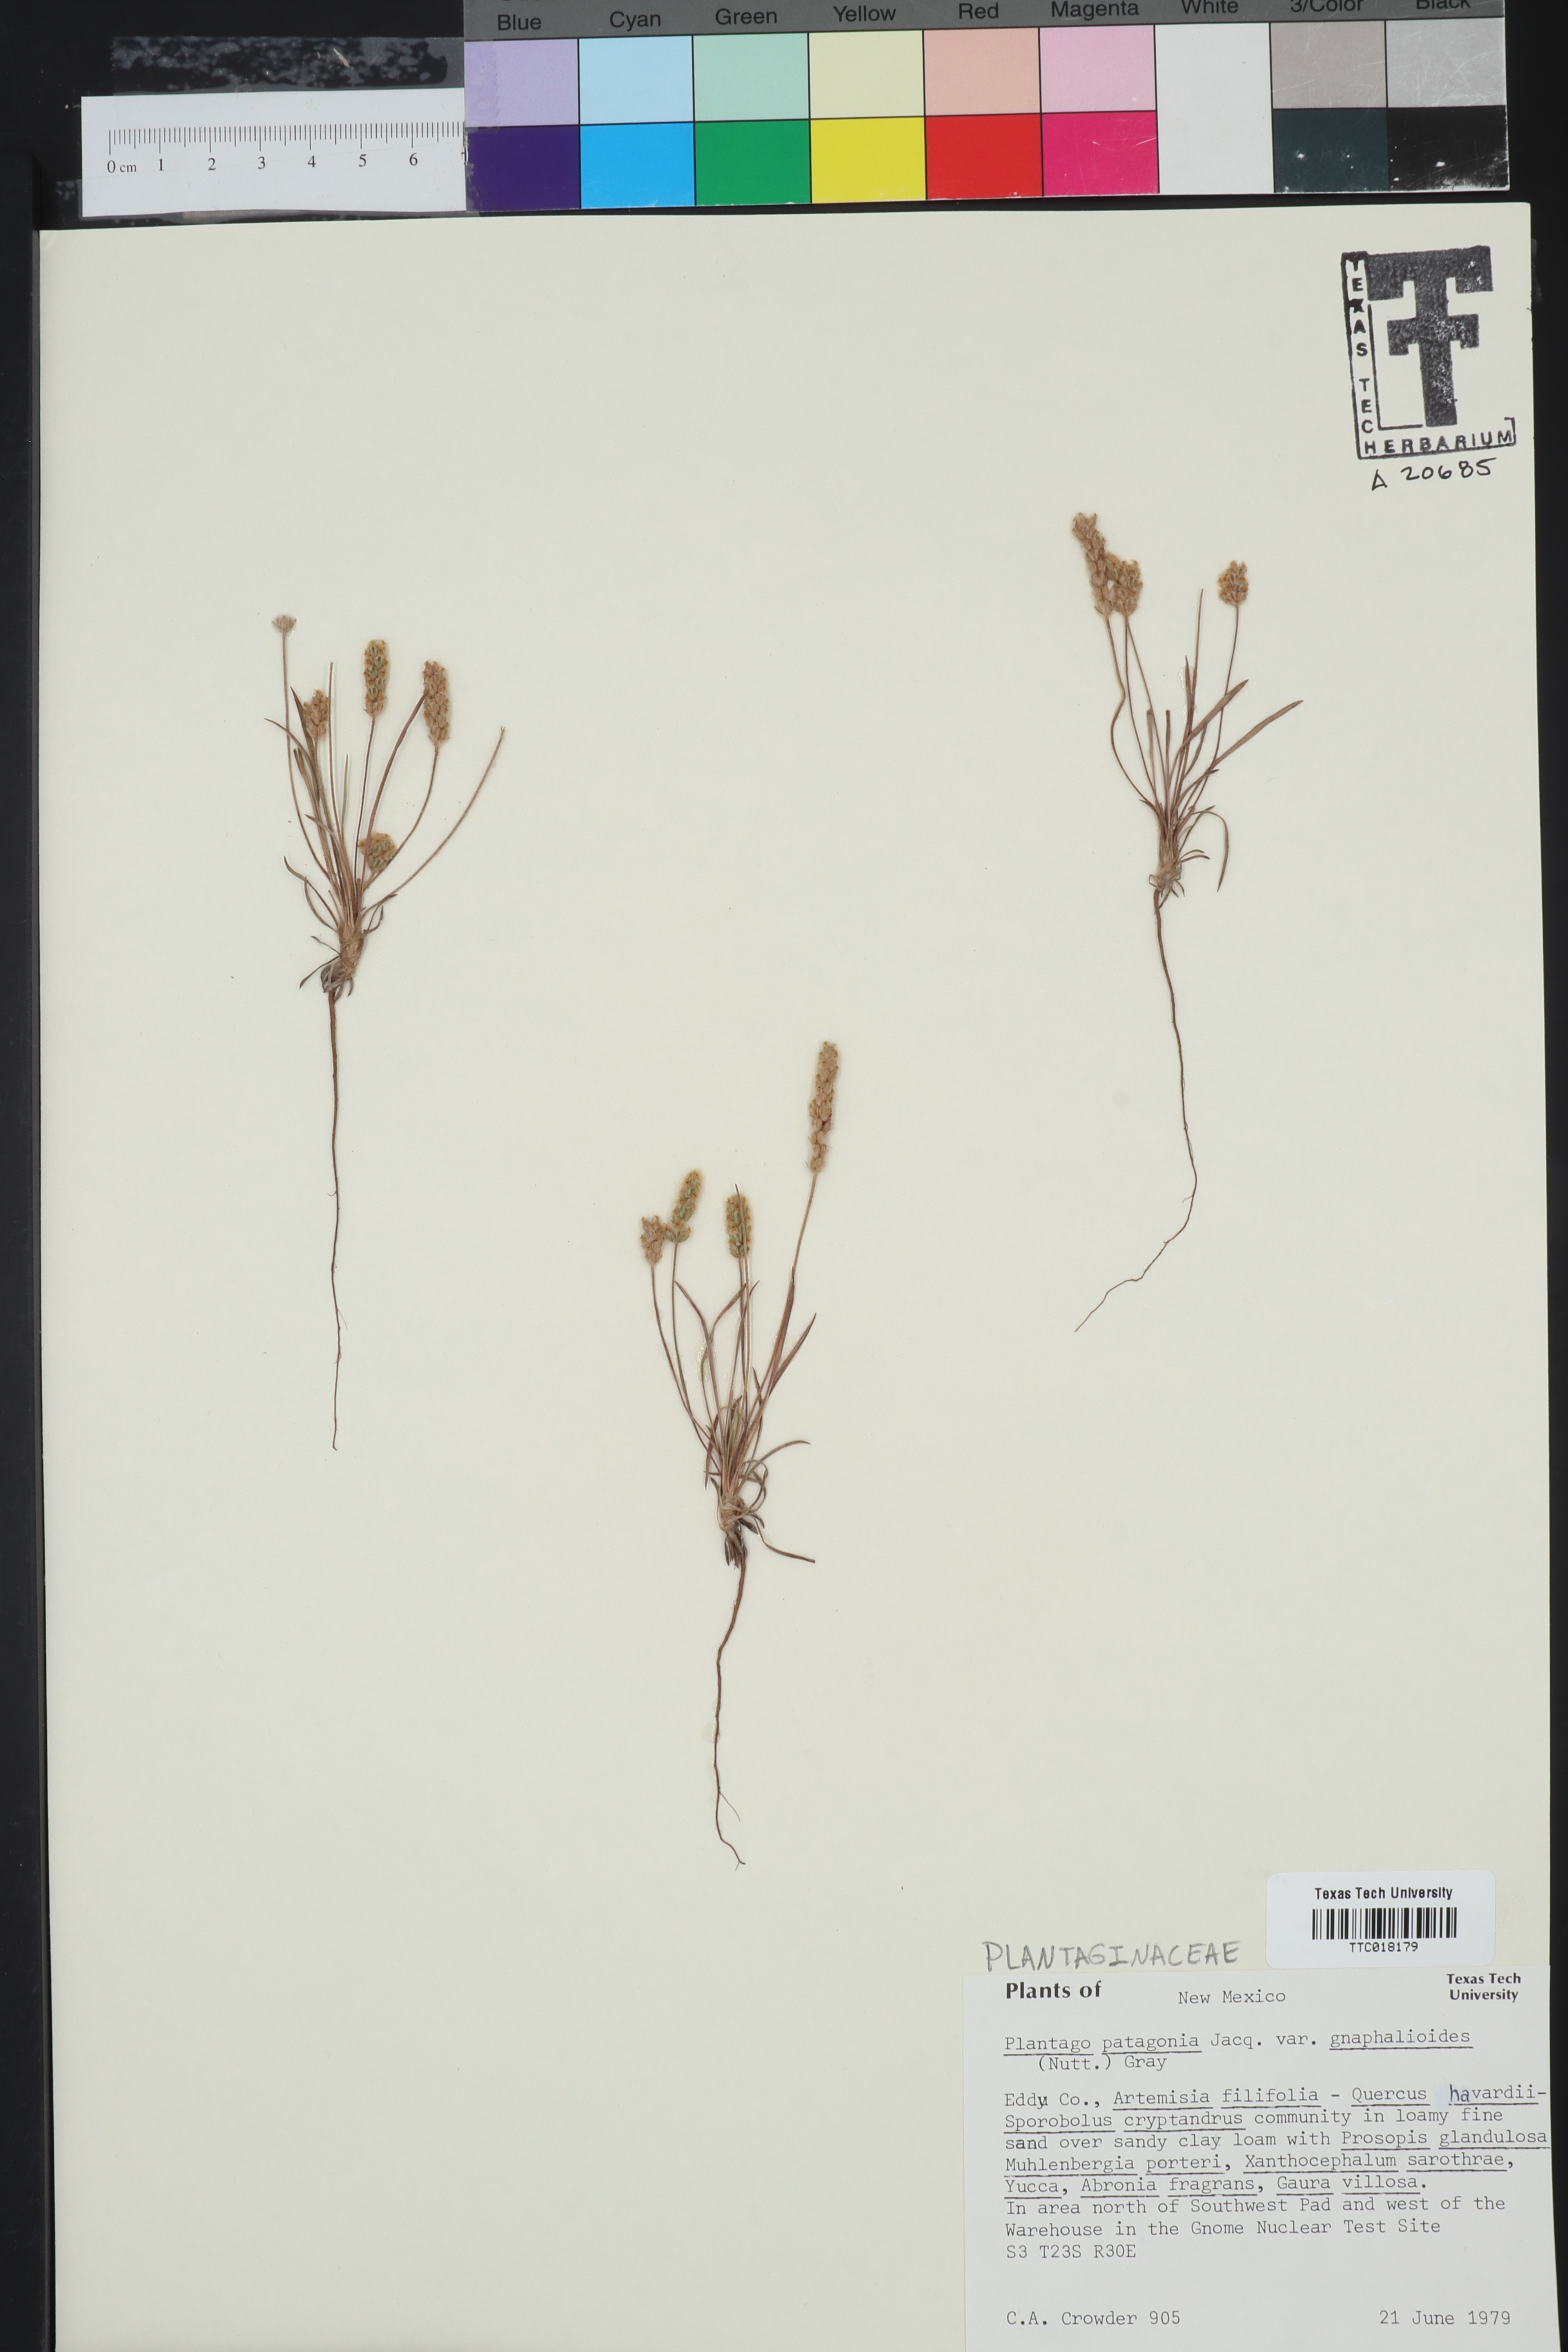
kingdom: Plantae
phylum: Tracheophyta
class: Magnoliopsida
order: Lamiales
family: Plantaginaceae
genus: Plantago
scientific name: Plantago patagonica
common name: Patagonia indian-wheat
